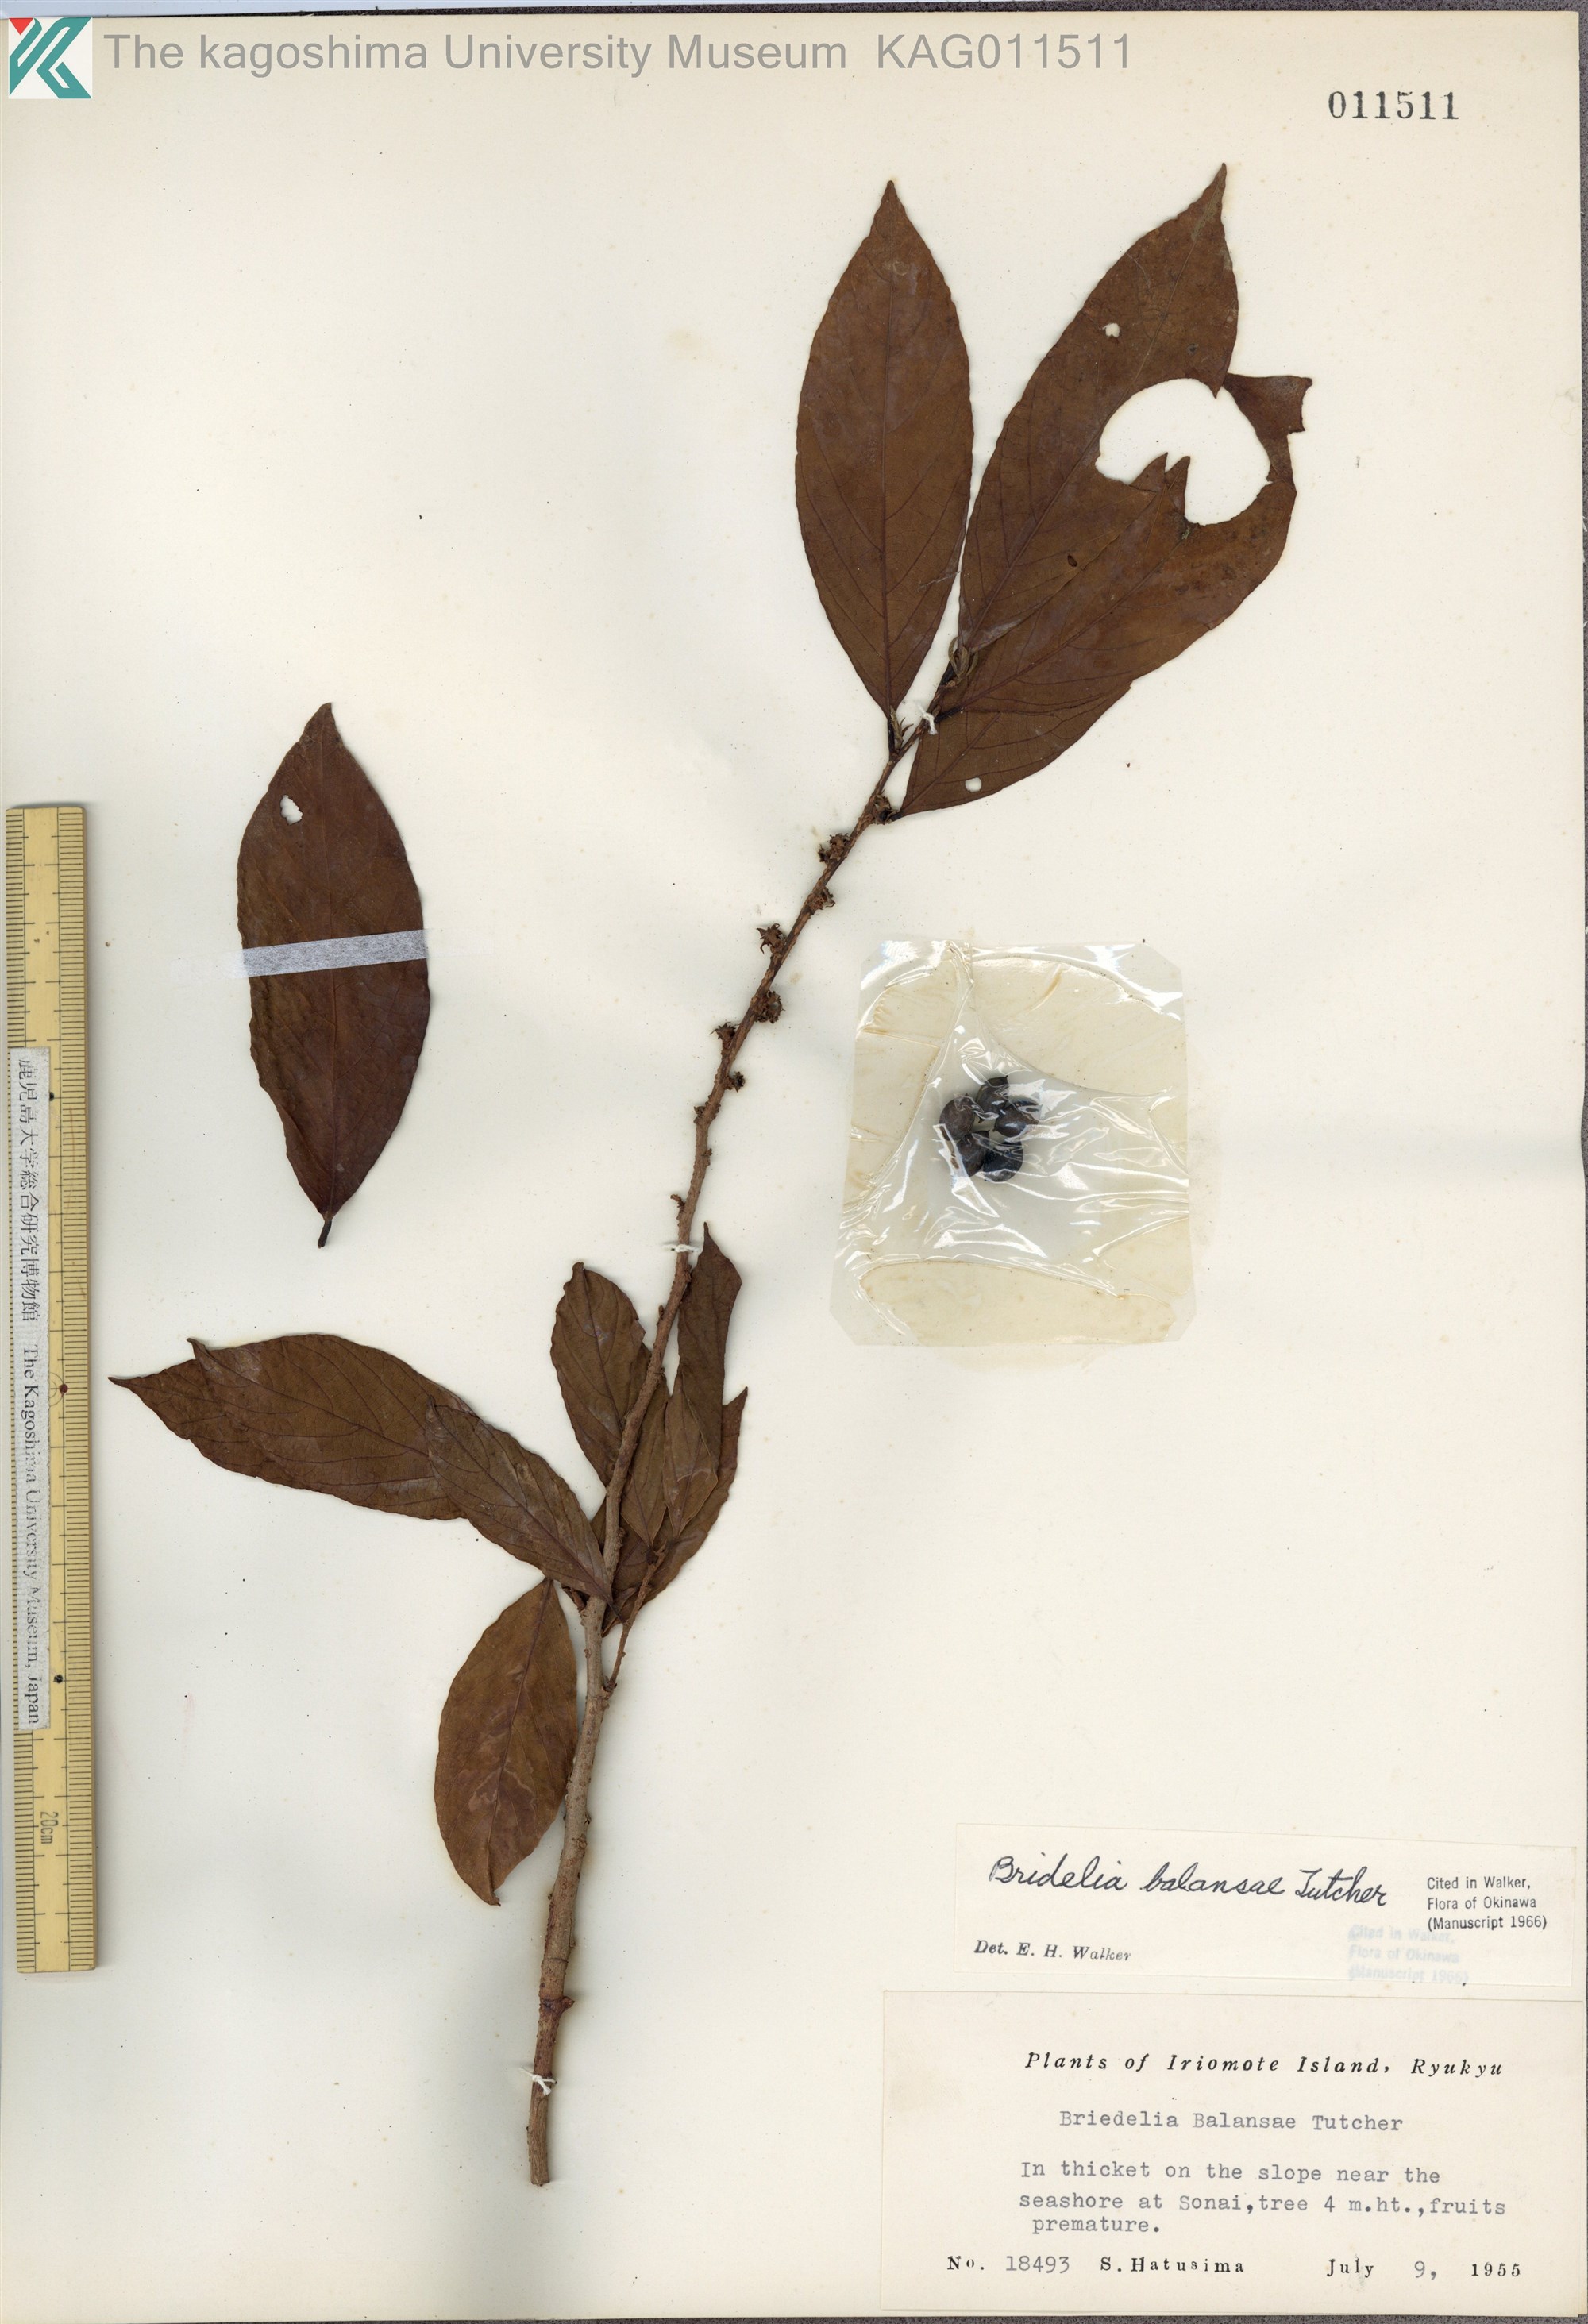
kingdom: Plantae
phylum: Tracheophyta
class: Magnoliopsida
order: Malpighiales
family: Phyllanthaceae
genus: Bridelia
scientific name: Bridelia balansae
